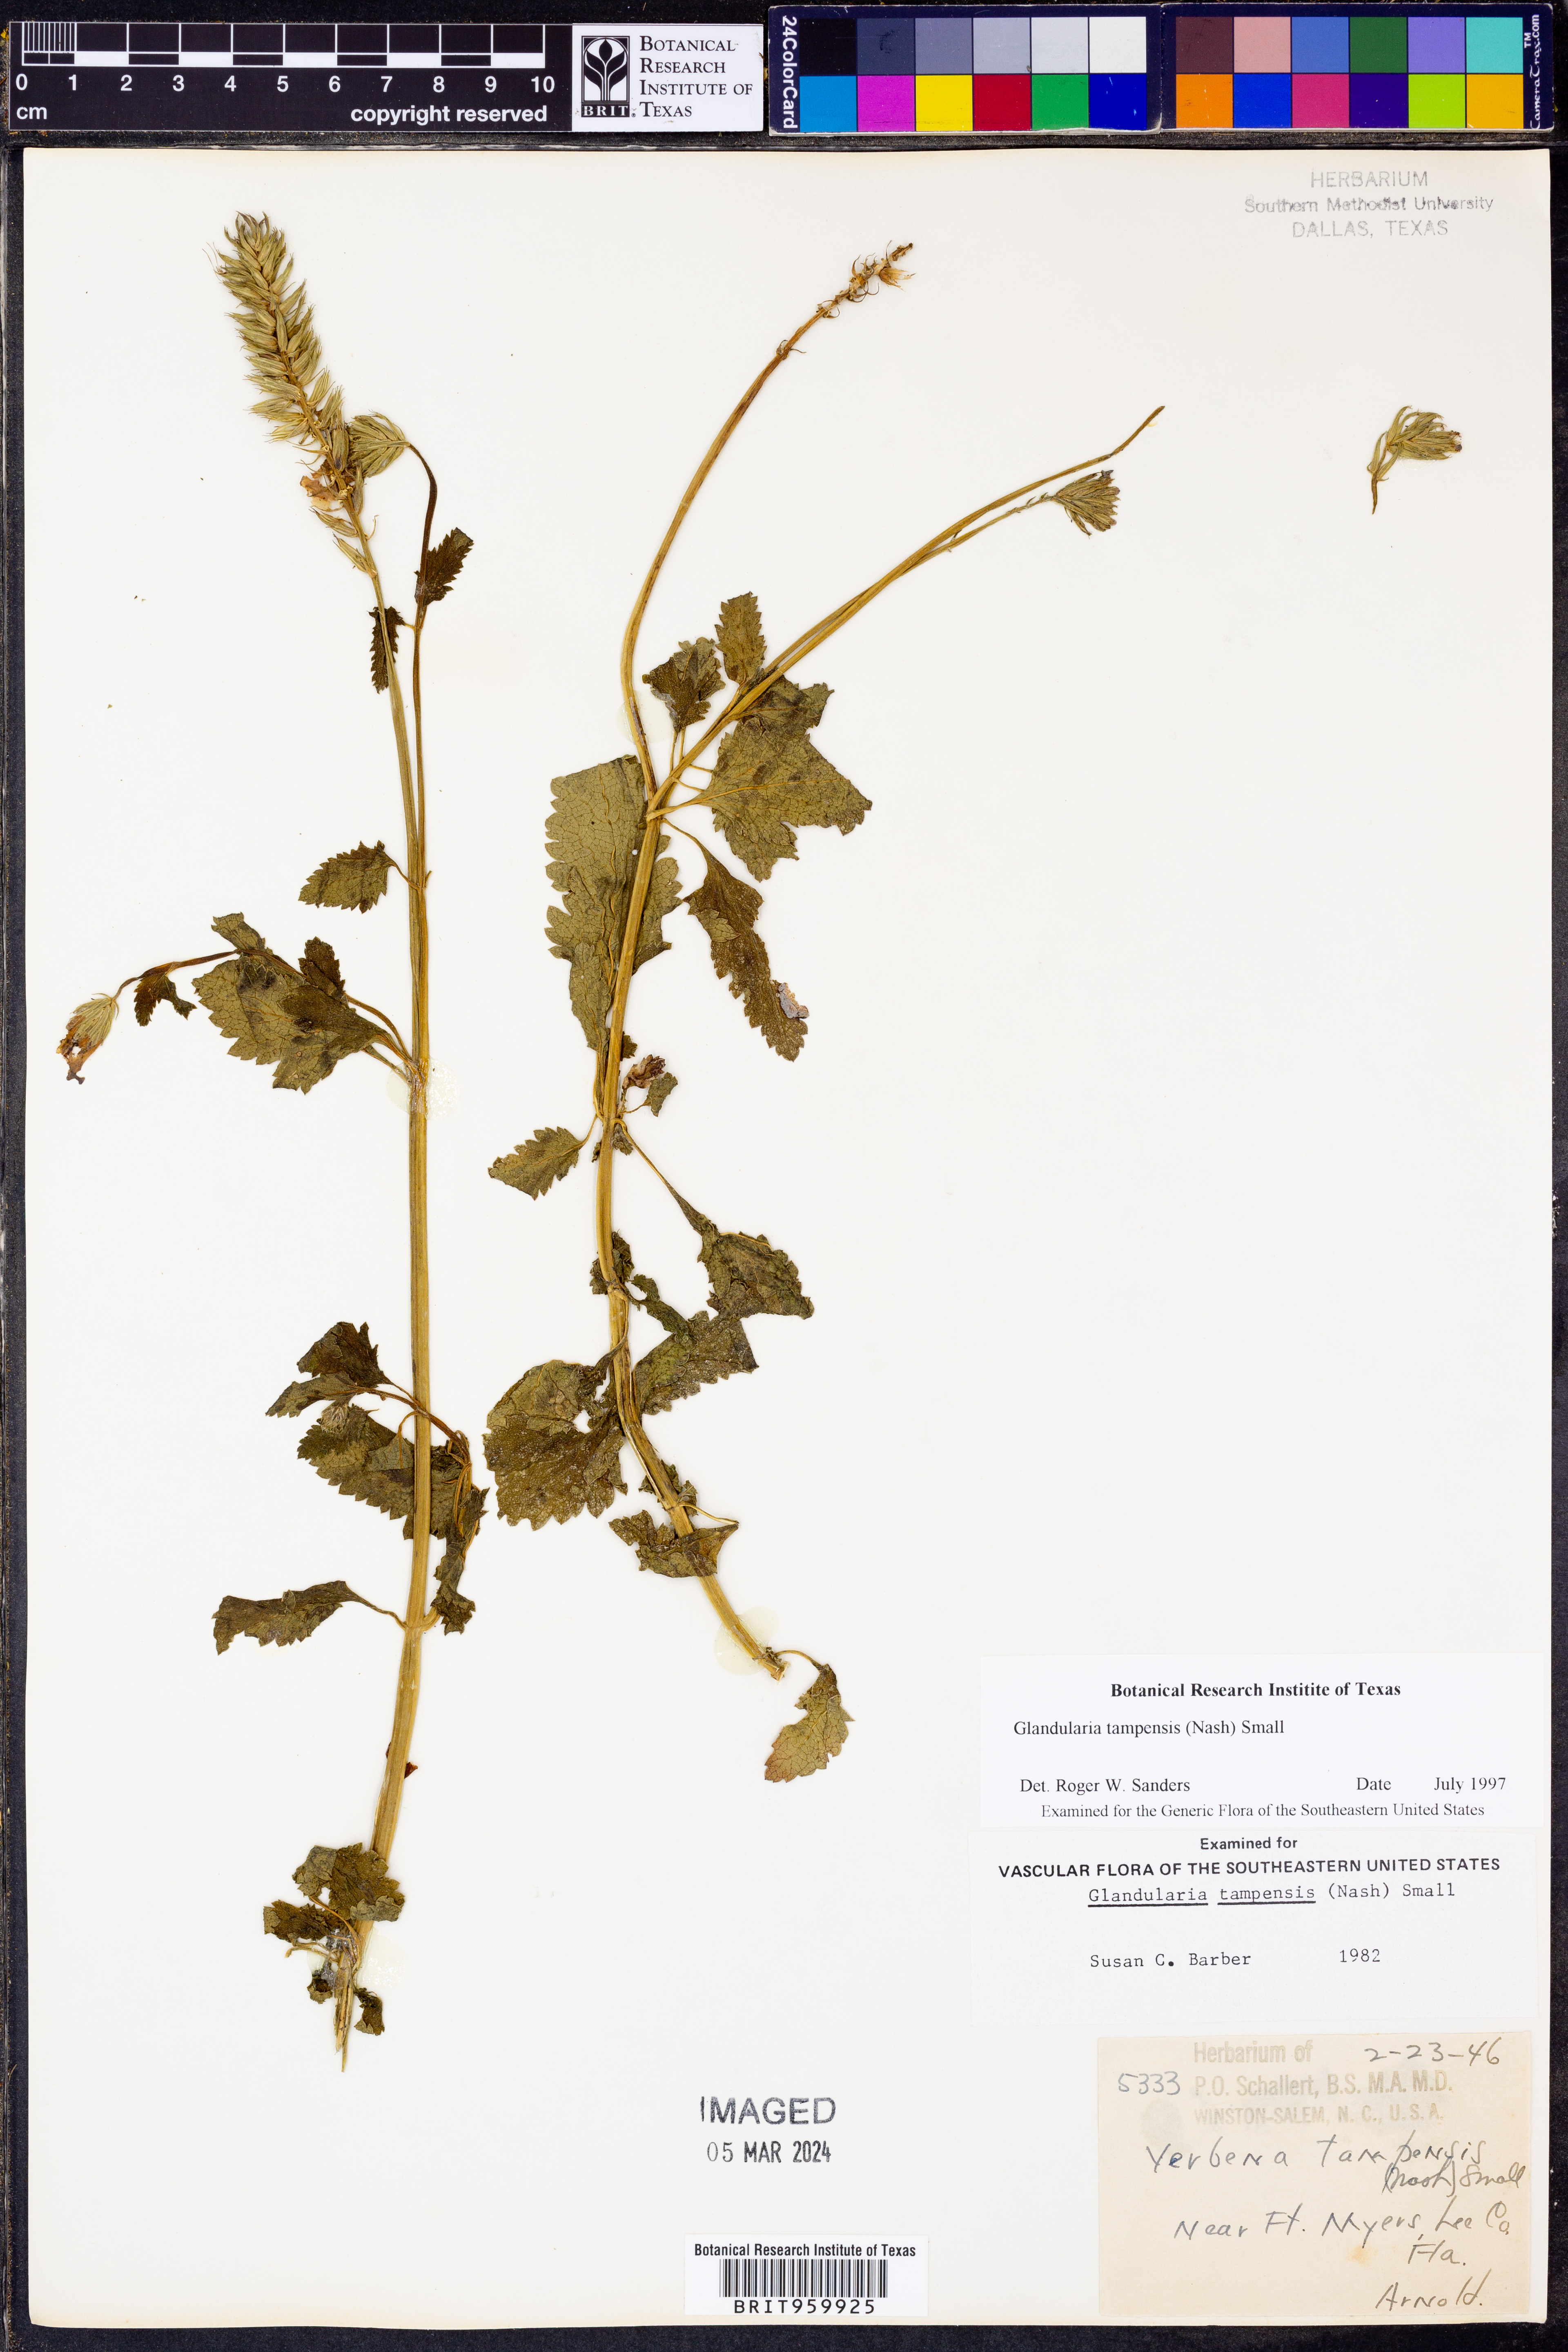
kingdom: Plantae
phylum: Tracheophyta
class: Magnoliopsida
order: Lamiales
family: Verbenaceae
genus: Verbena
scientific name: Verbena tampensis
